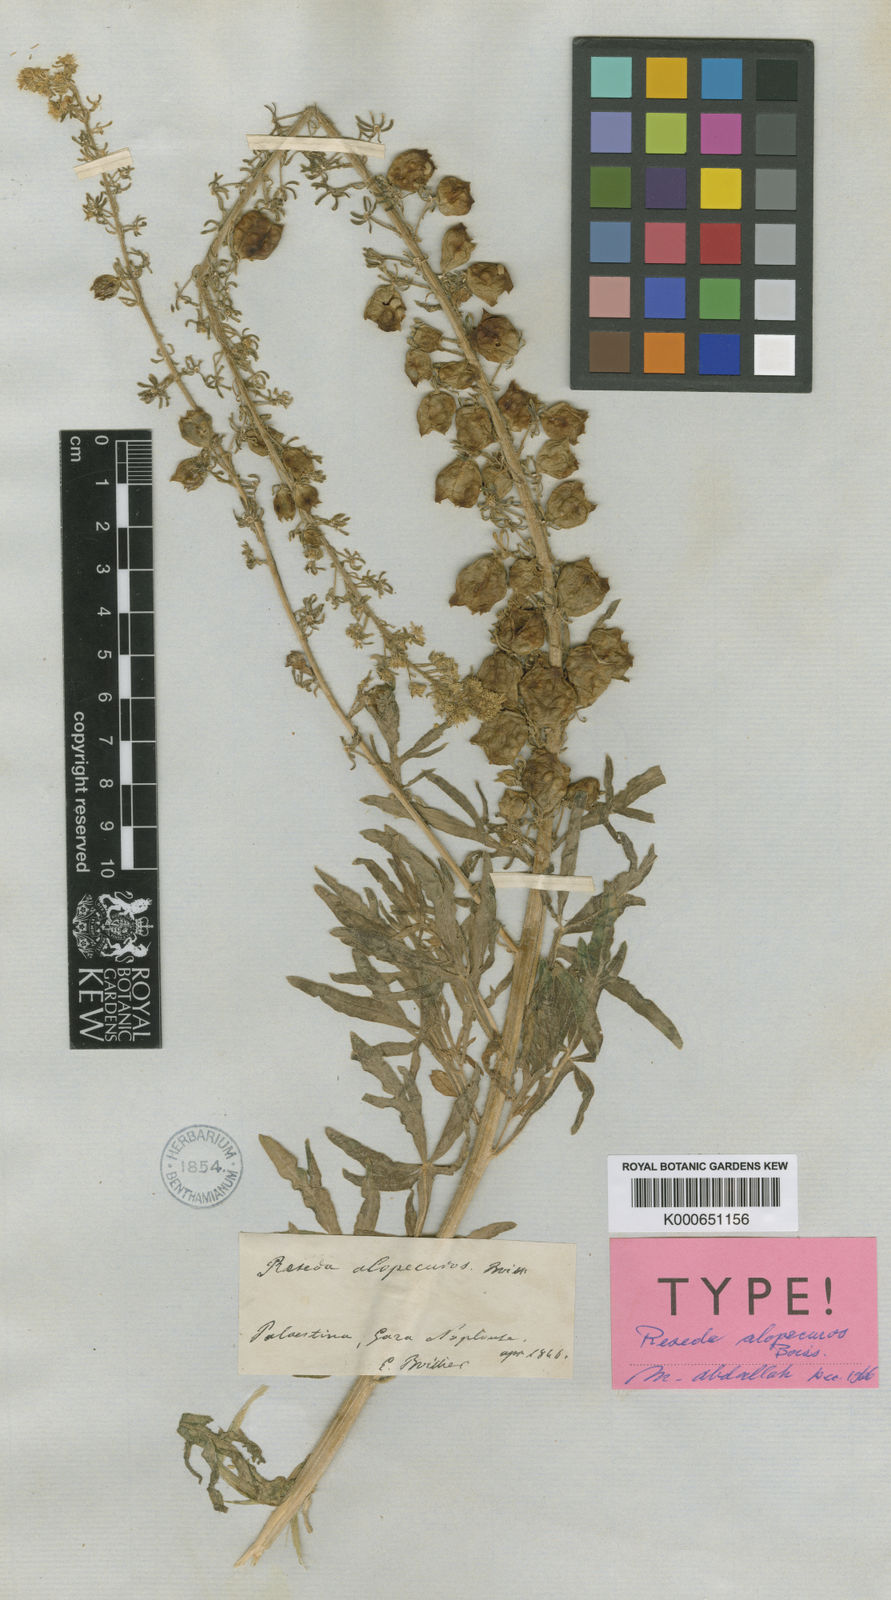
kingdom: Plantae
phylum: Tracheophyta
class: Magnoliopsida
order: Brassicales
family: Resedaceae
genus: Reseda
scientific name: Reseda alopecuros
